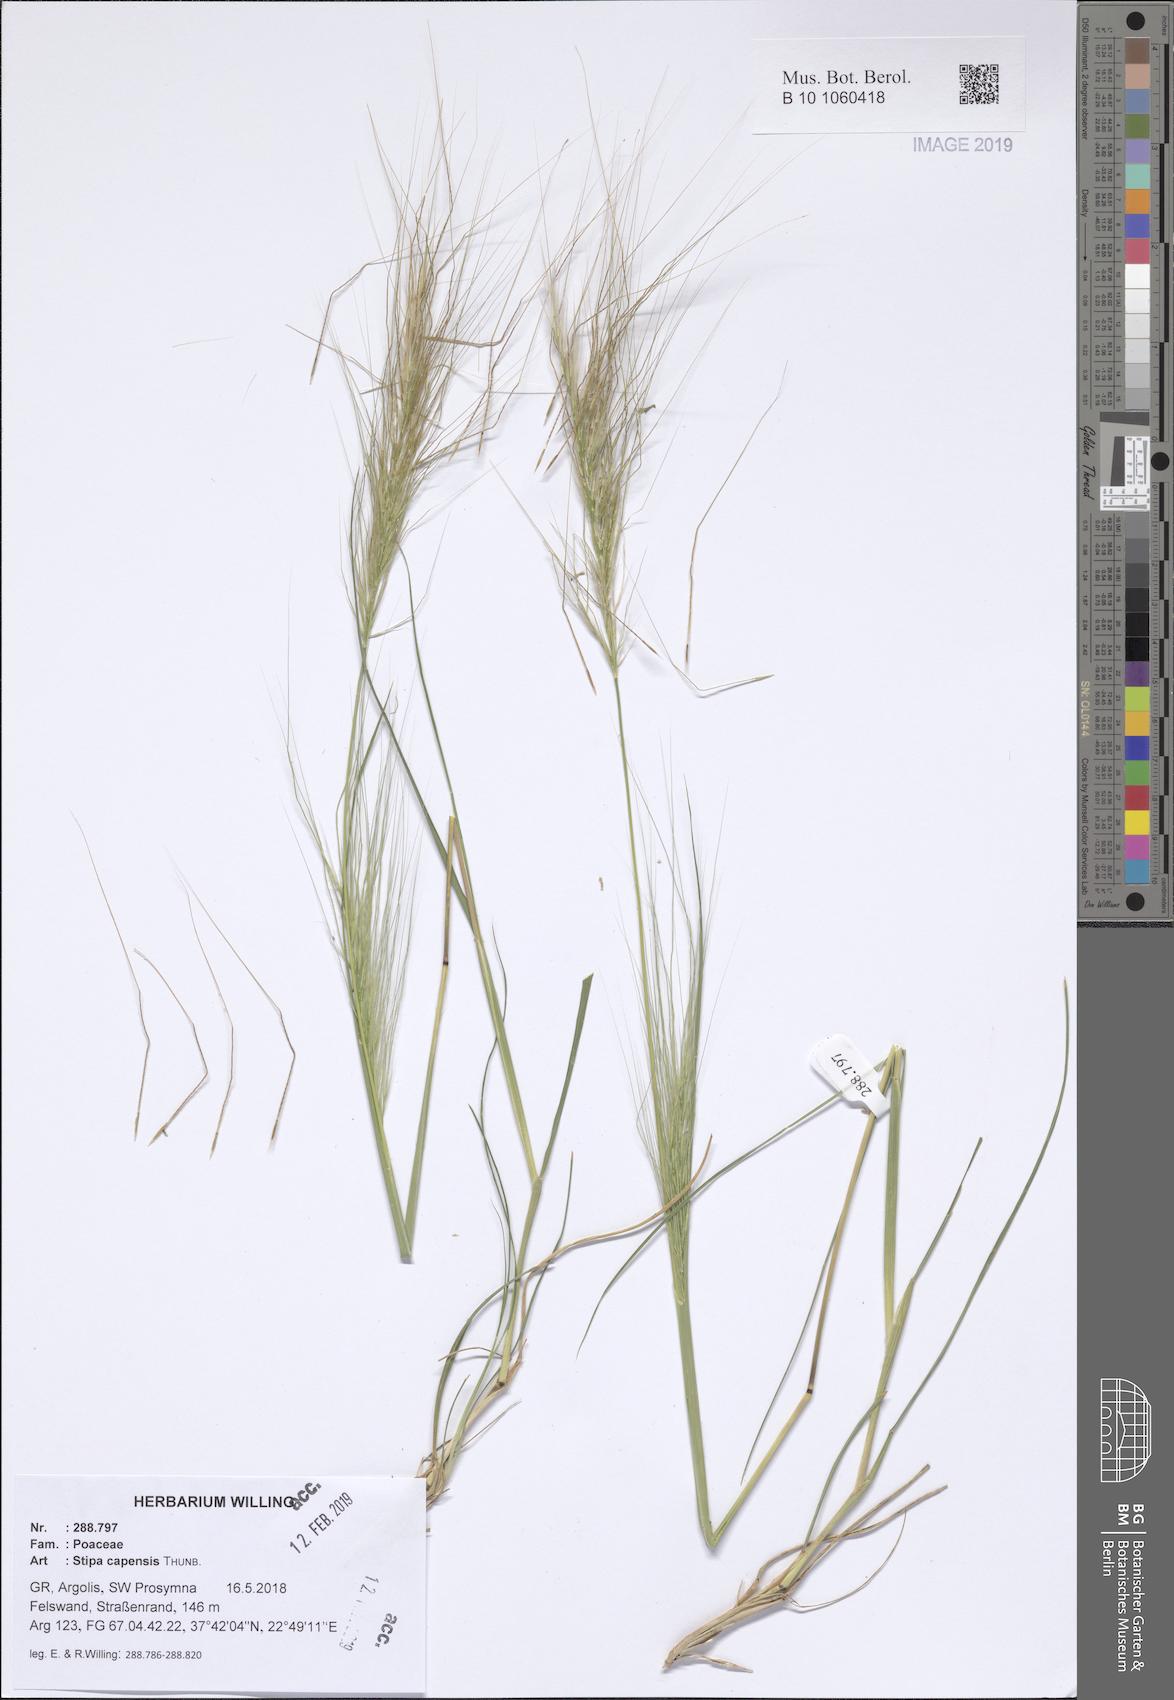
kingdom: Plantae
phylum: Tracheophyta
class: Liliopsida
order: Poales
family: Poaceae
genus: Stipellula
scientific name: Stipellula capensis
